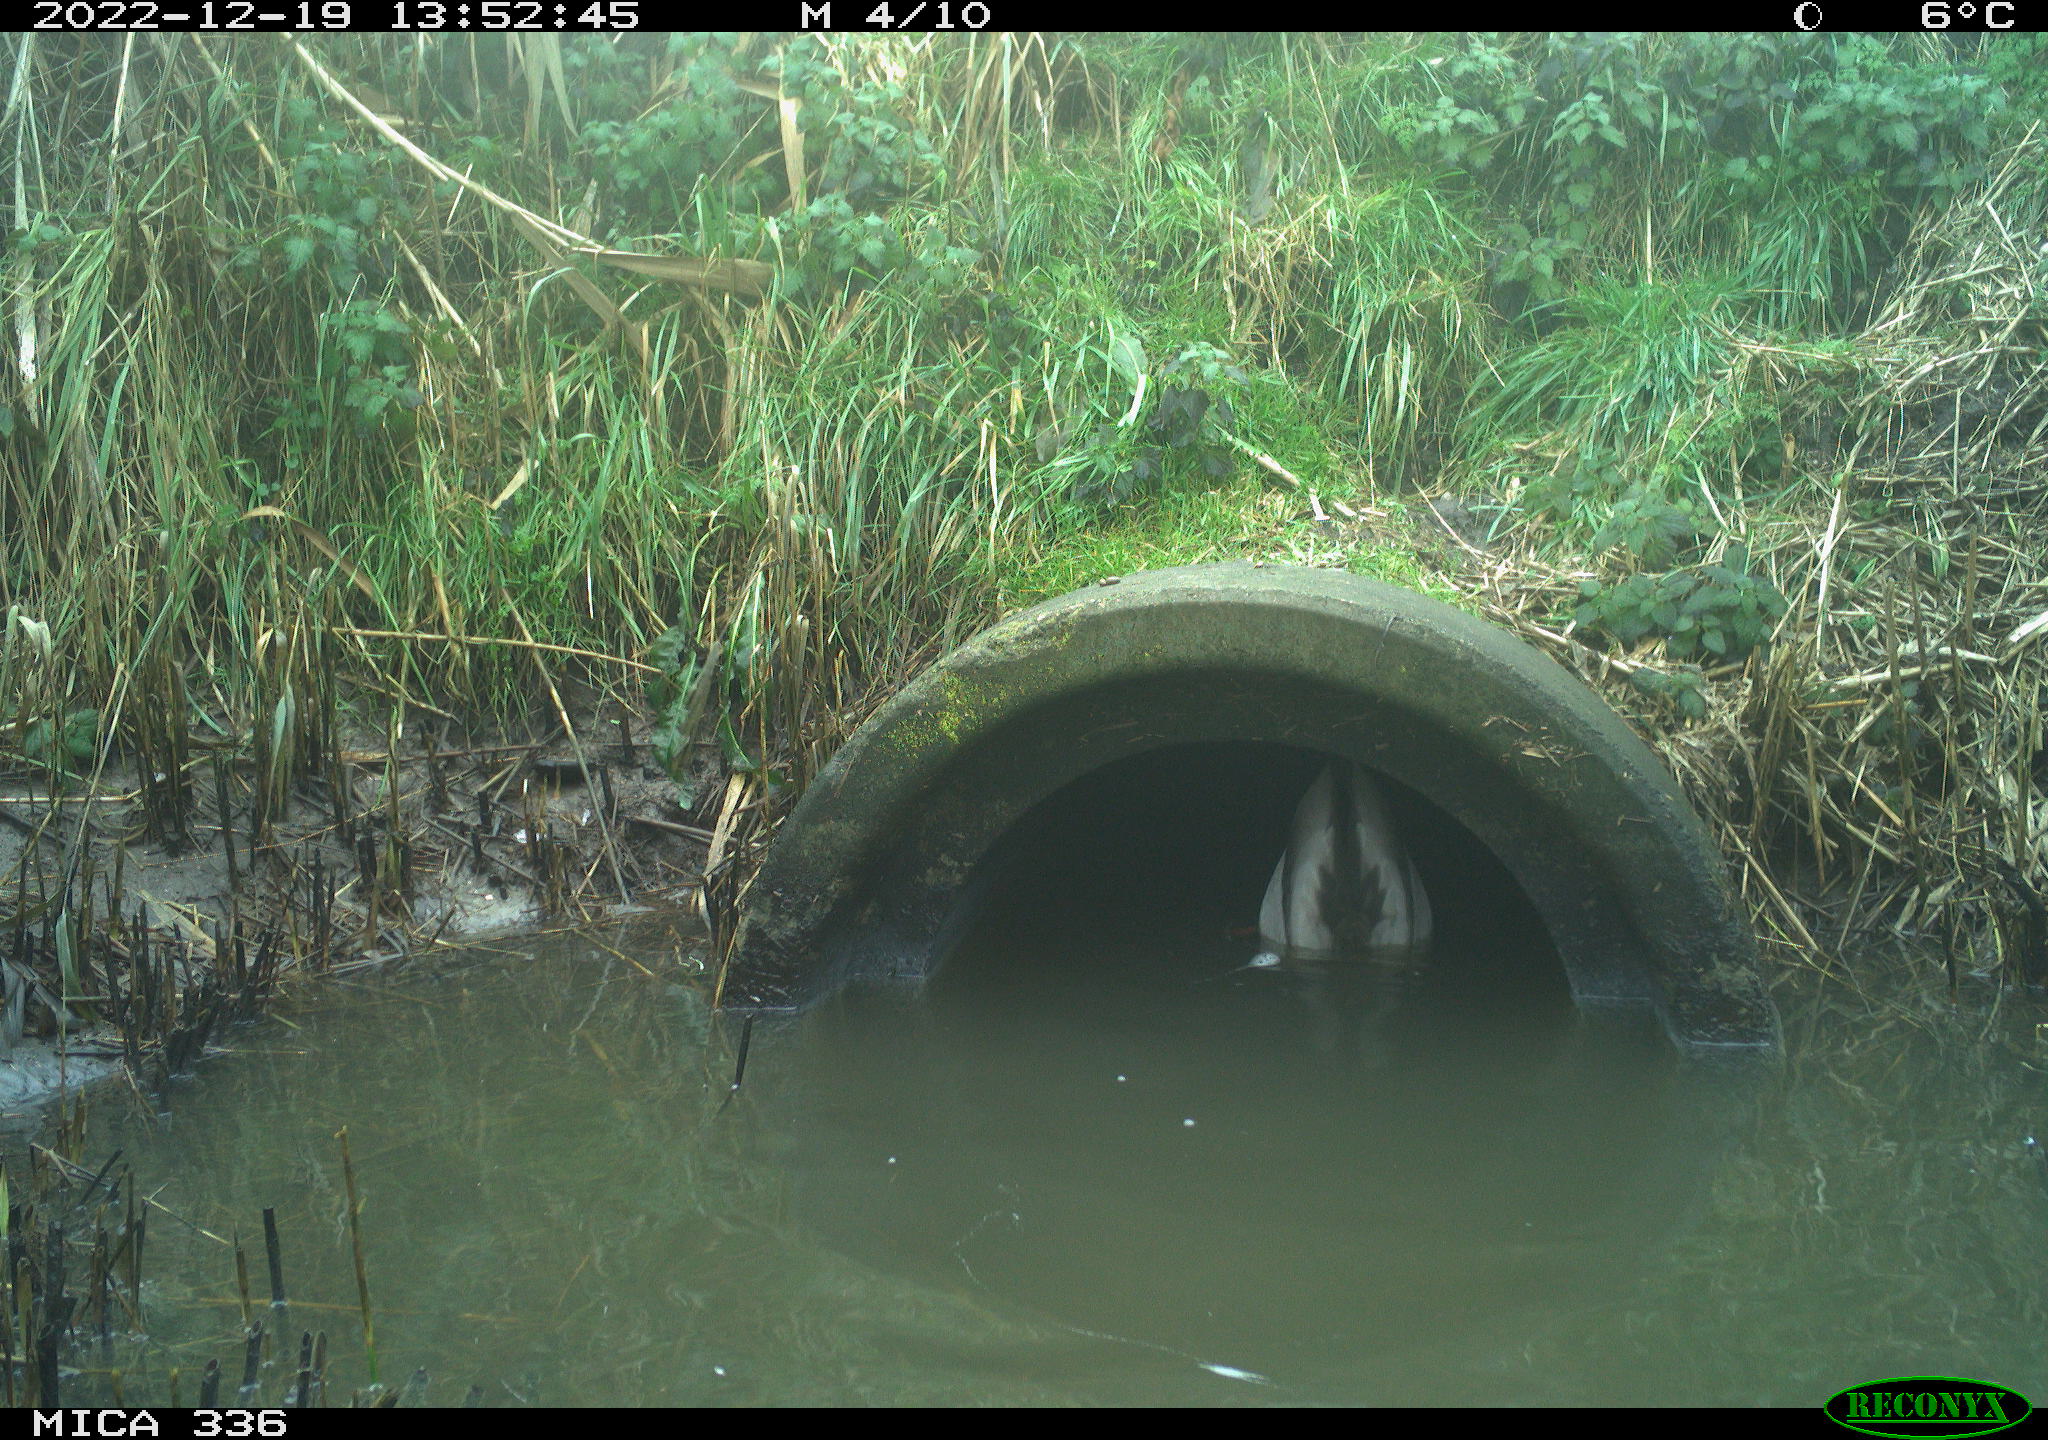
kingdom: Animalia
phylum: Chordata
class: Aves
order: Anseriformes
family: Anatidae
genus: Anas
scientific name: Anas
